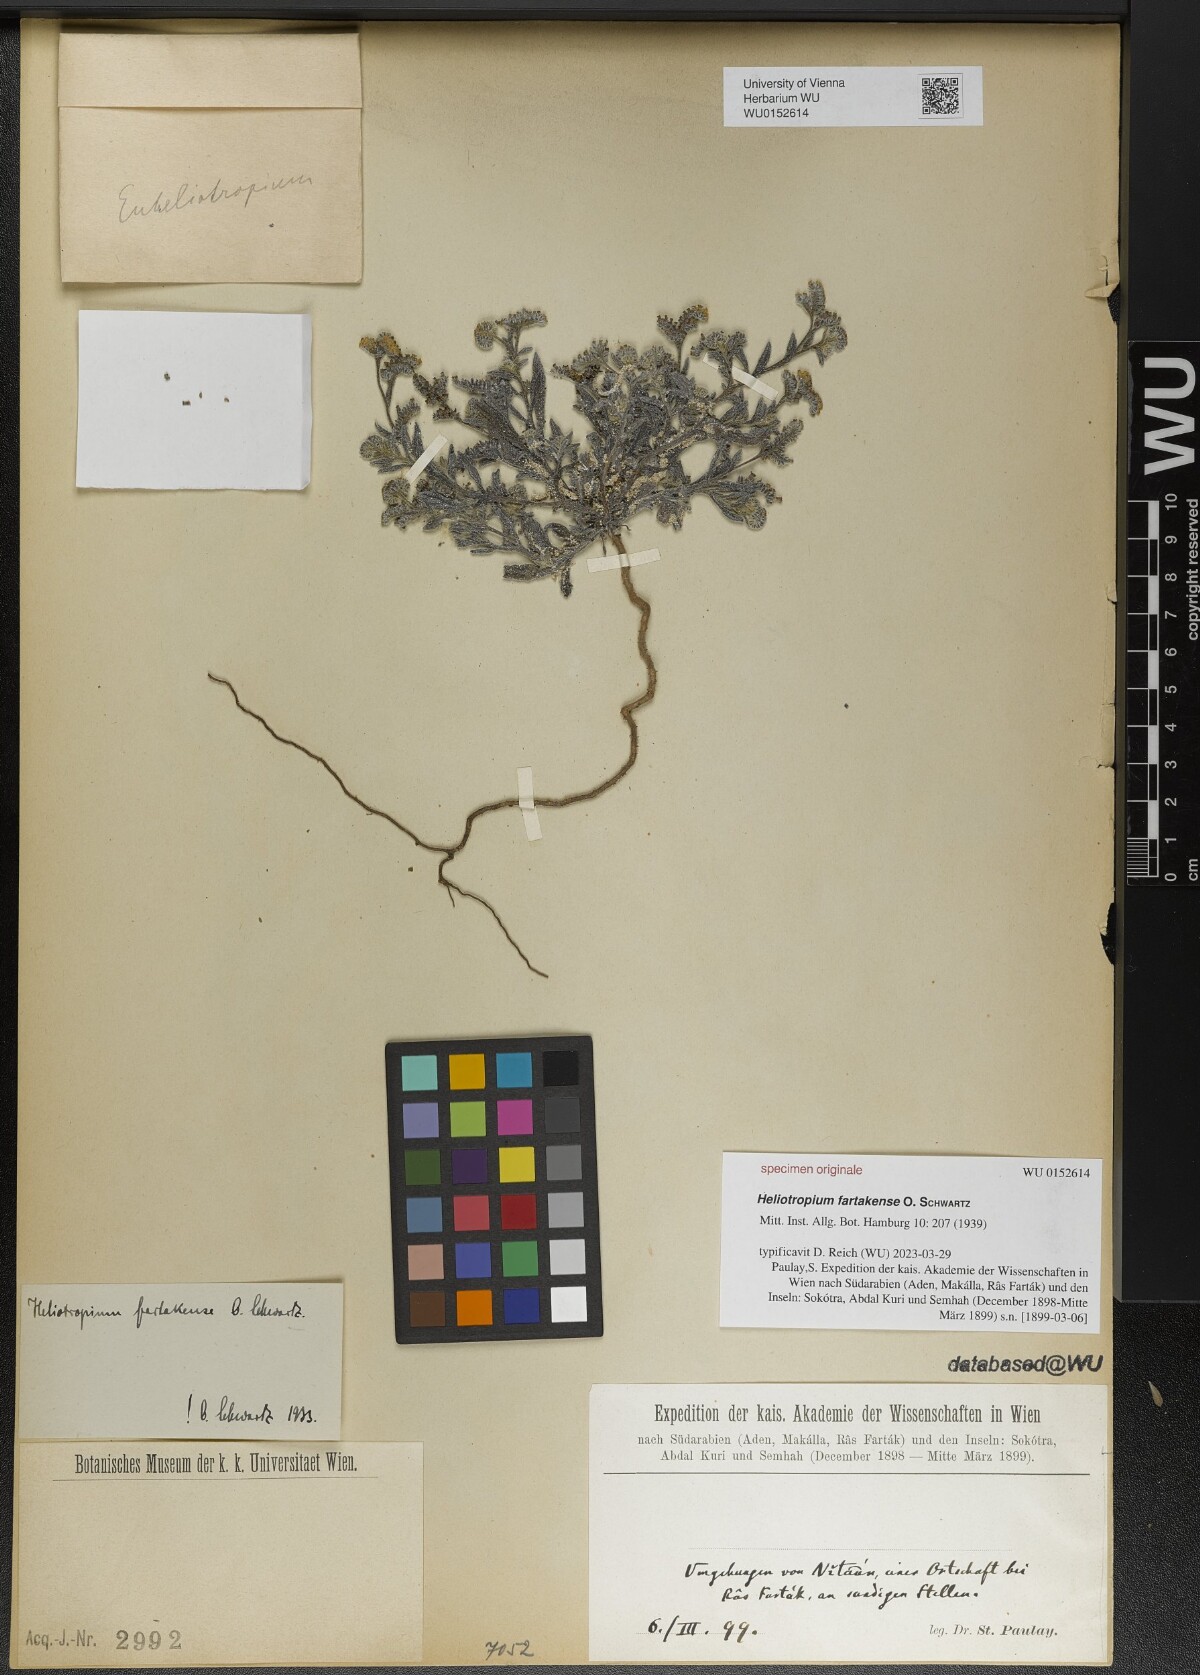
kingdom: Plantae
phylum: Tracheophyta
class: Magnoliopsida
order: Boraginales
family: Heliotropiaceae
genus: Heliotropium
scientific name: Heliotropium bacciferum
